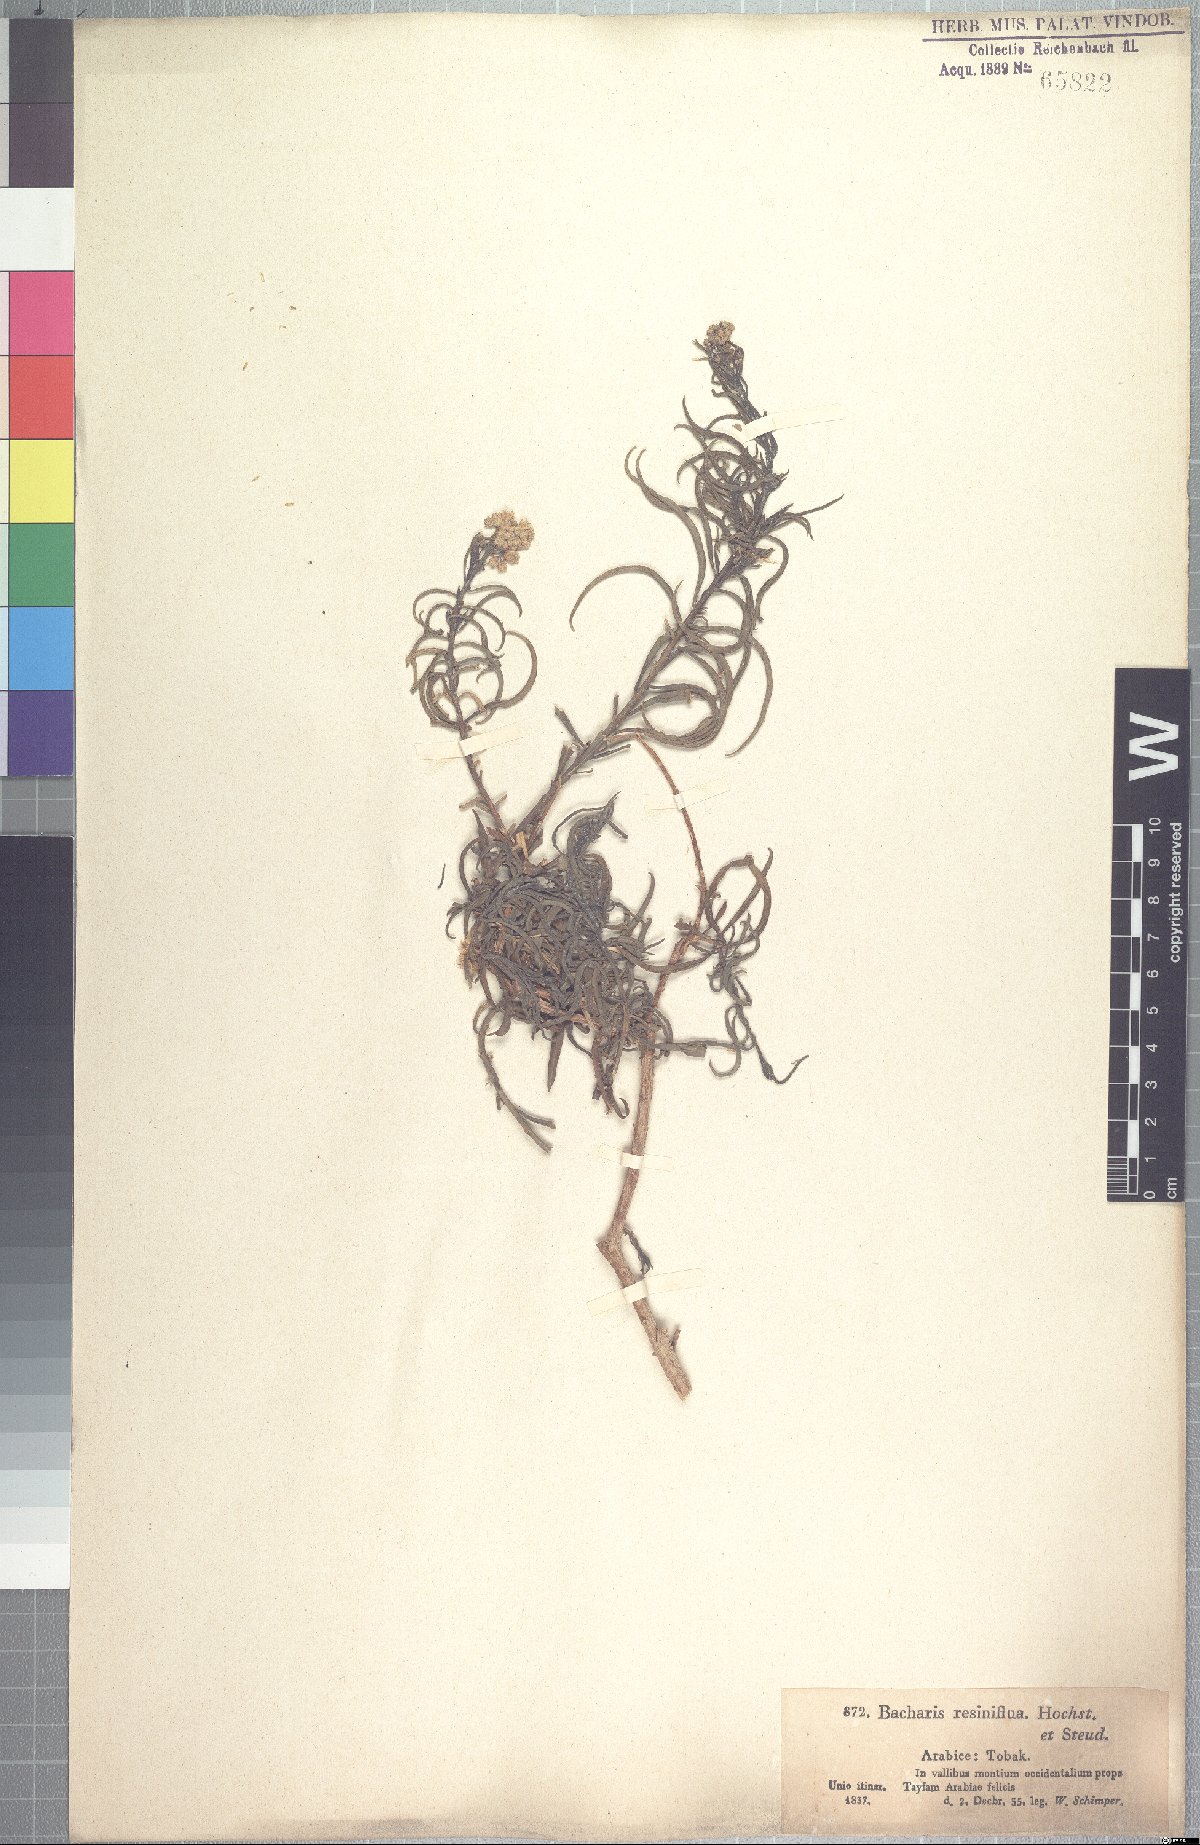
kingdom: Plantae
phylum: Tracheophyta
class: Magnoliopsida
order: Asterales
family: Asteraceae
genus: Psiadia
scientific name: Psiadia punctulata
